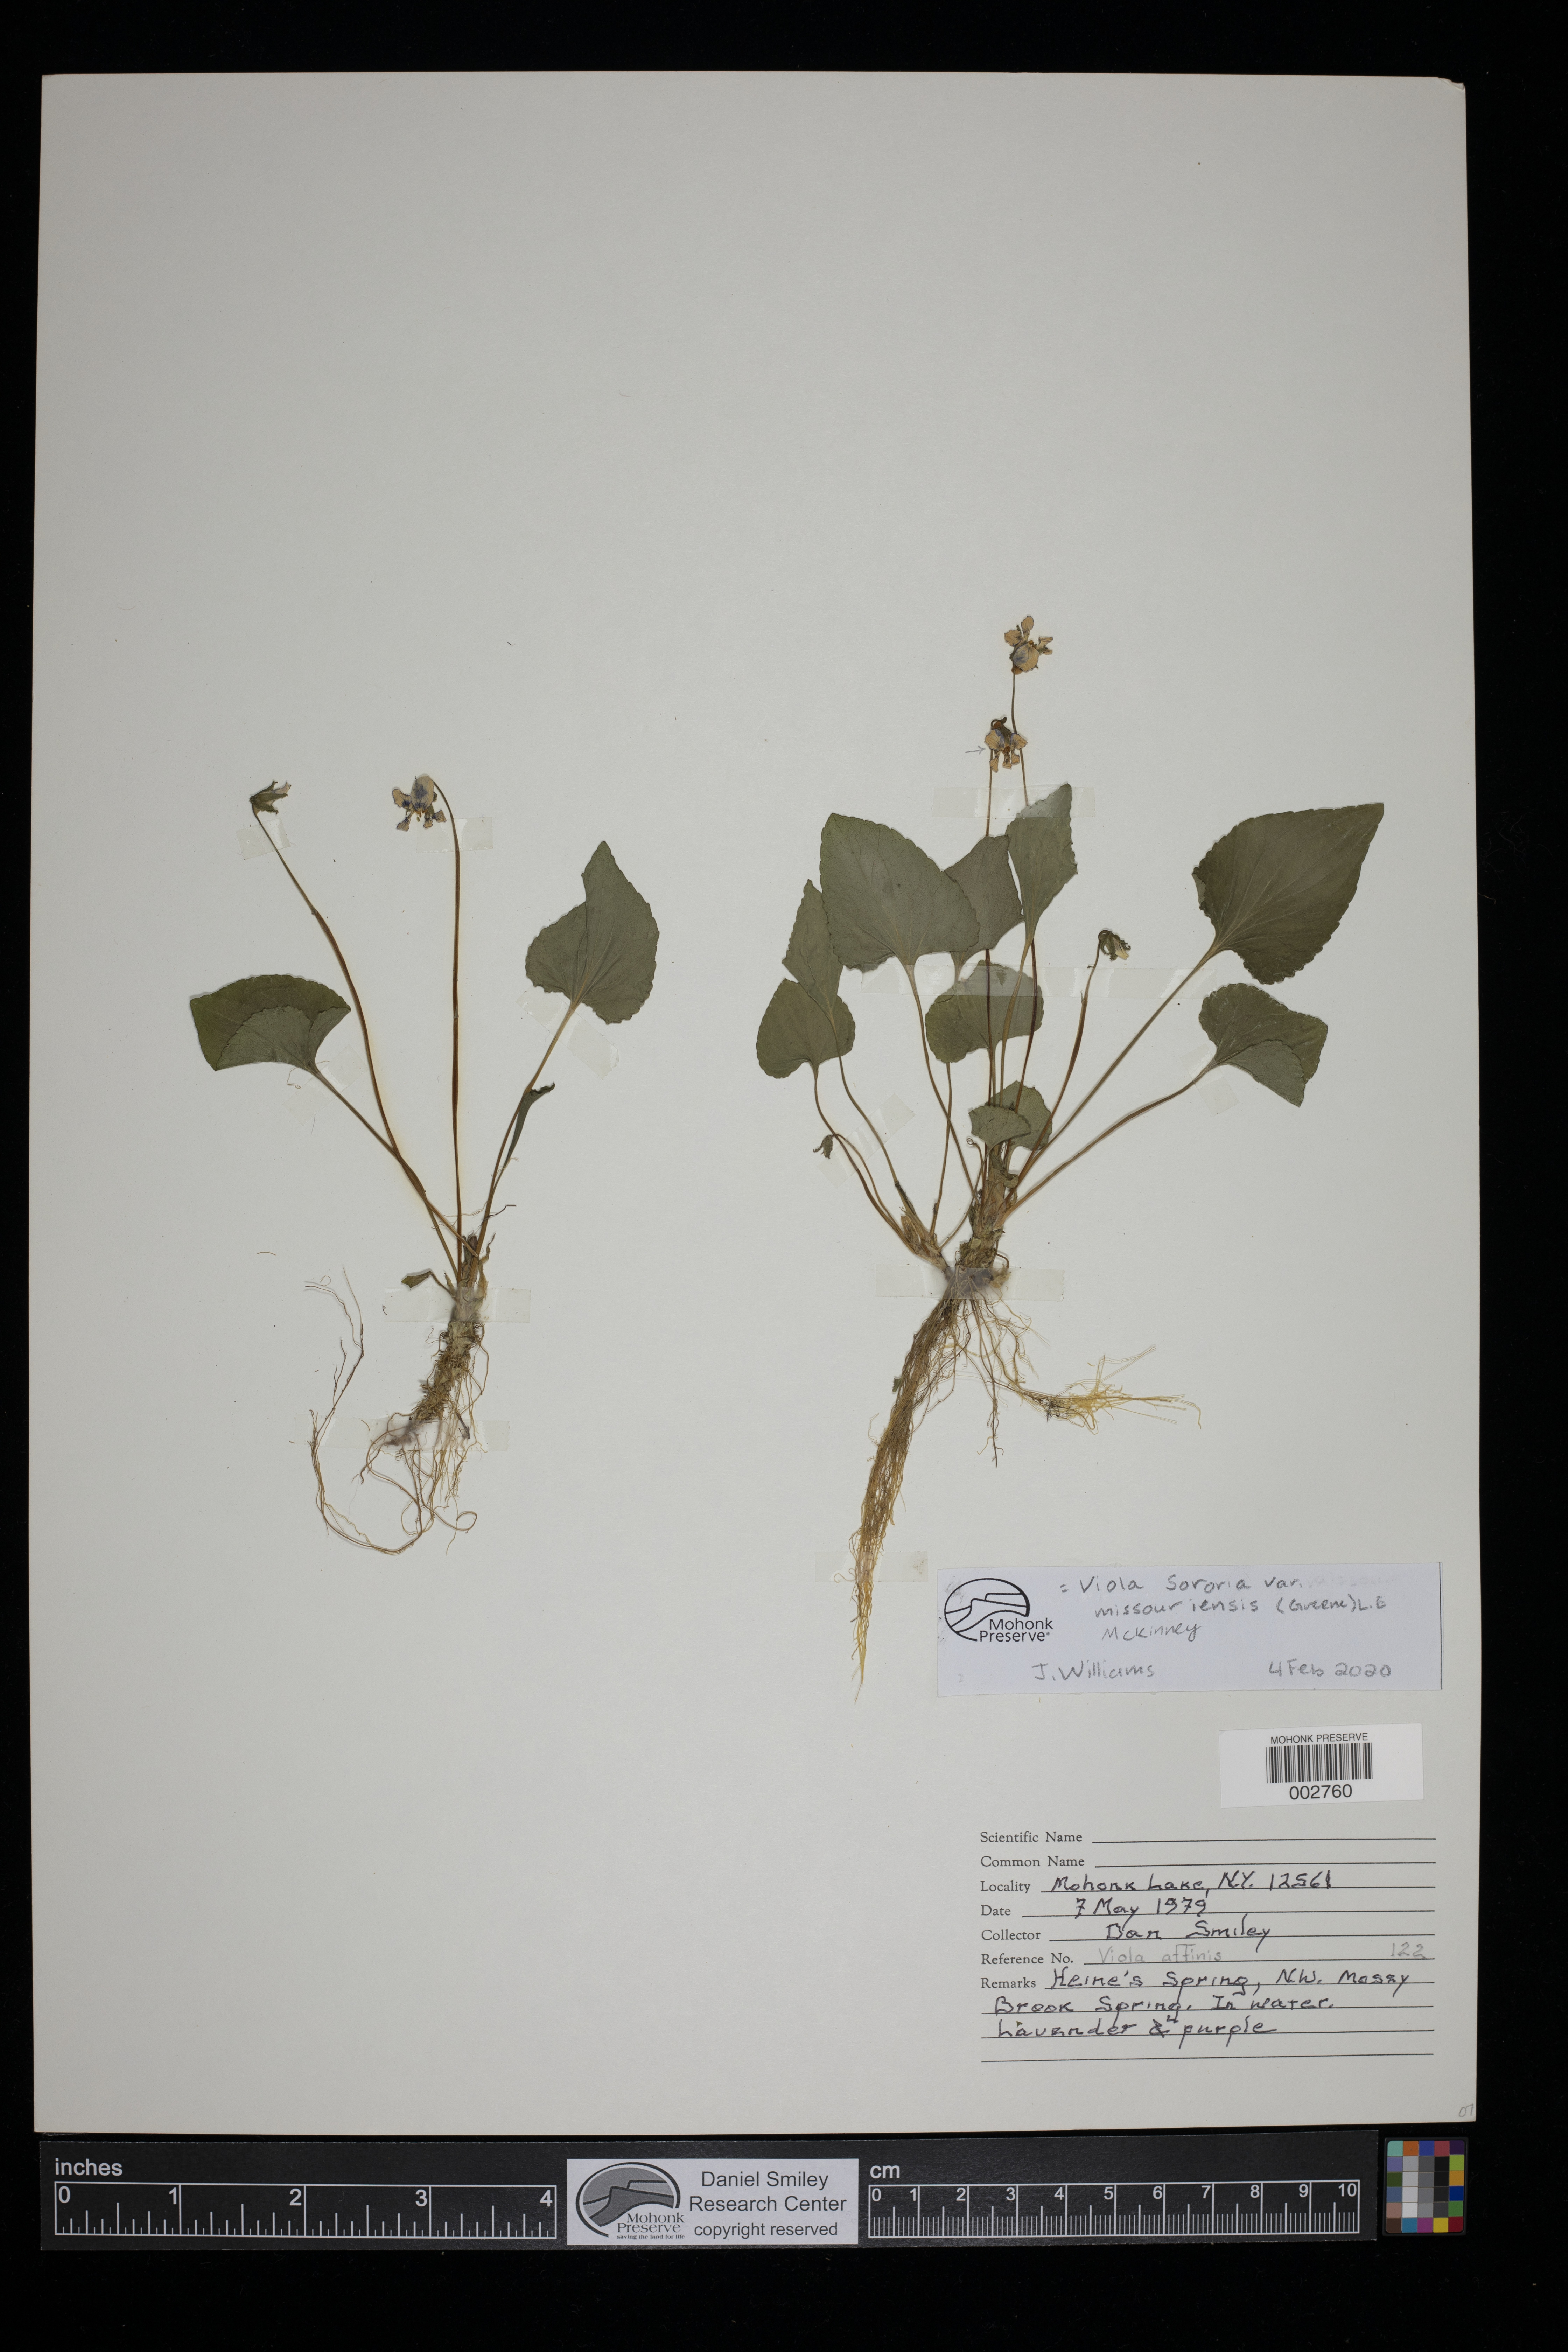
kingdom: Plantae
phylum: Tracheophyta
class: Magnoliopsida
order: Malpighiales
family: Violaceae
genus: Viola
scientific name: Viola missouriensis
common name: Missouri violet
